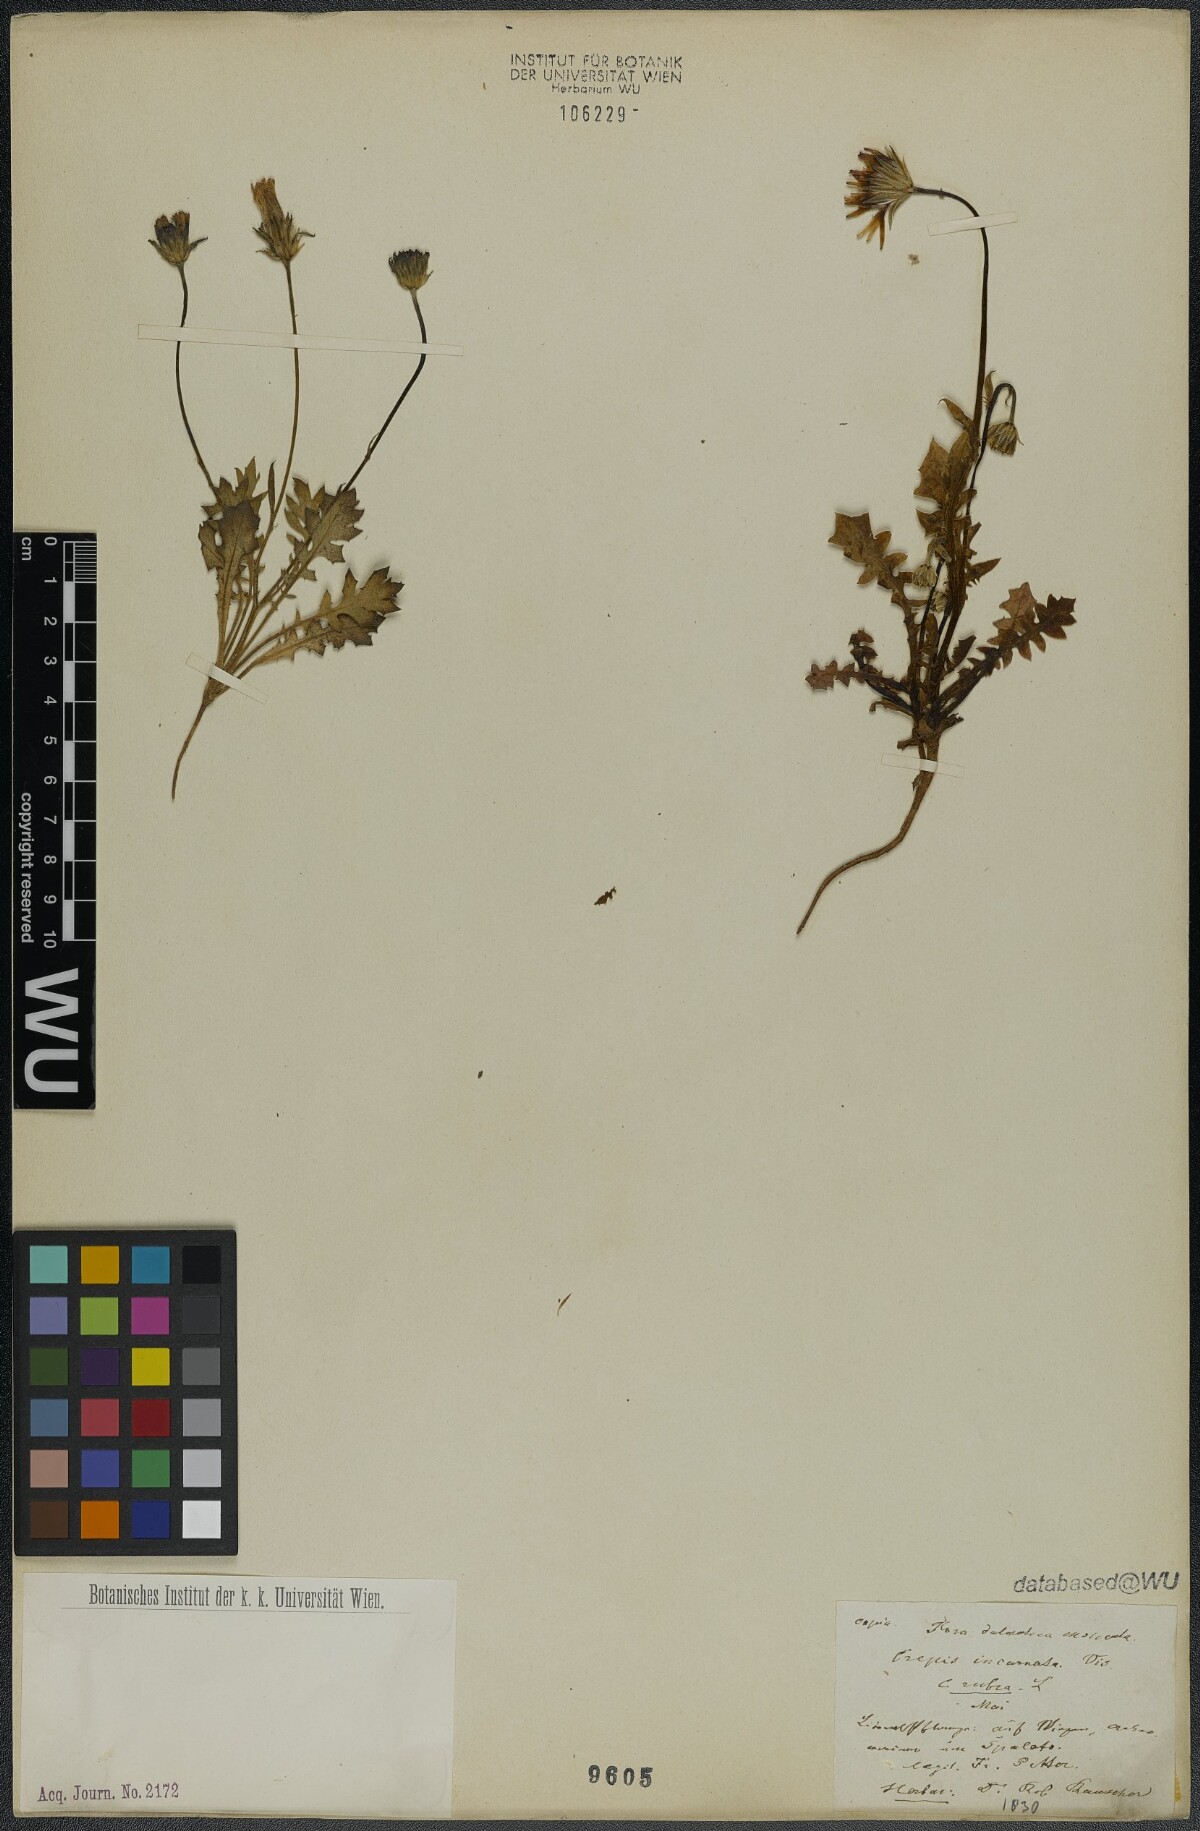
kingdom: Plantae
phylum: Tracheophyta
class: Magnoliopsida
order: Asterales
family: Asteraceae
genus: Crepis
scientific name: Crepis rubra
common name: Pink hawk's-beard
